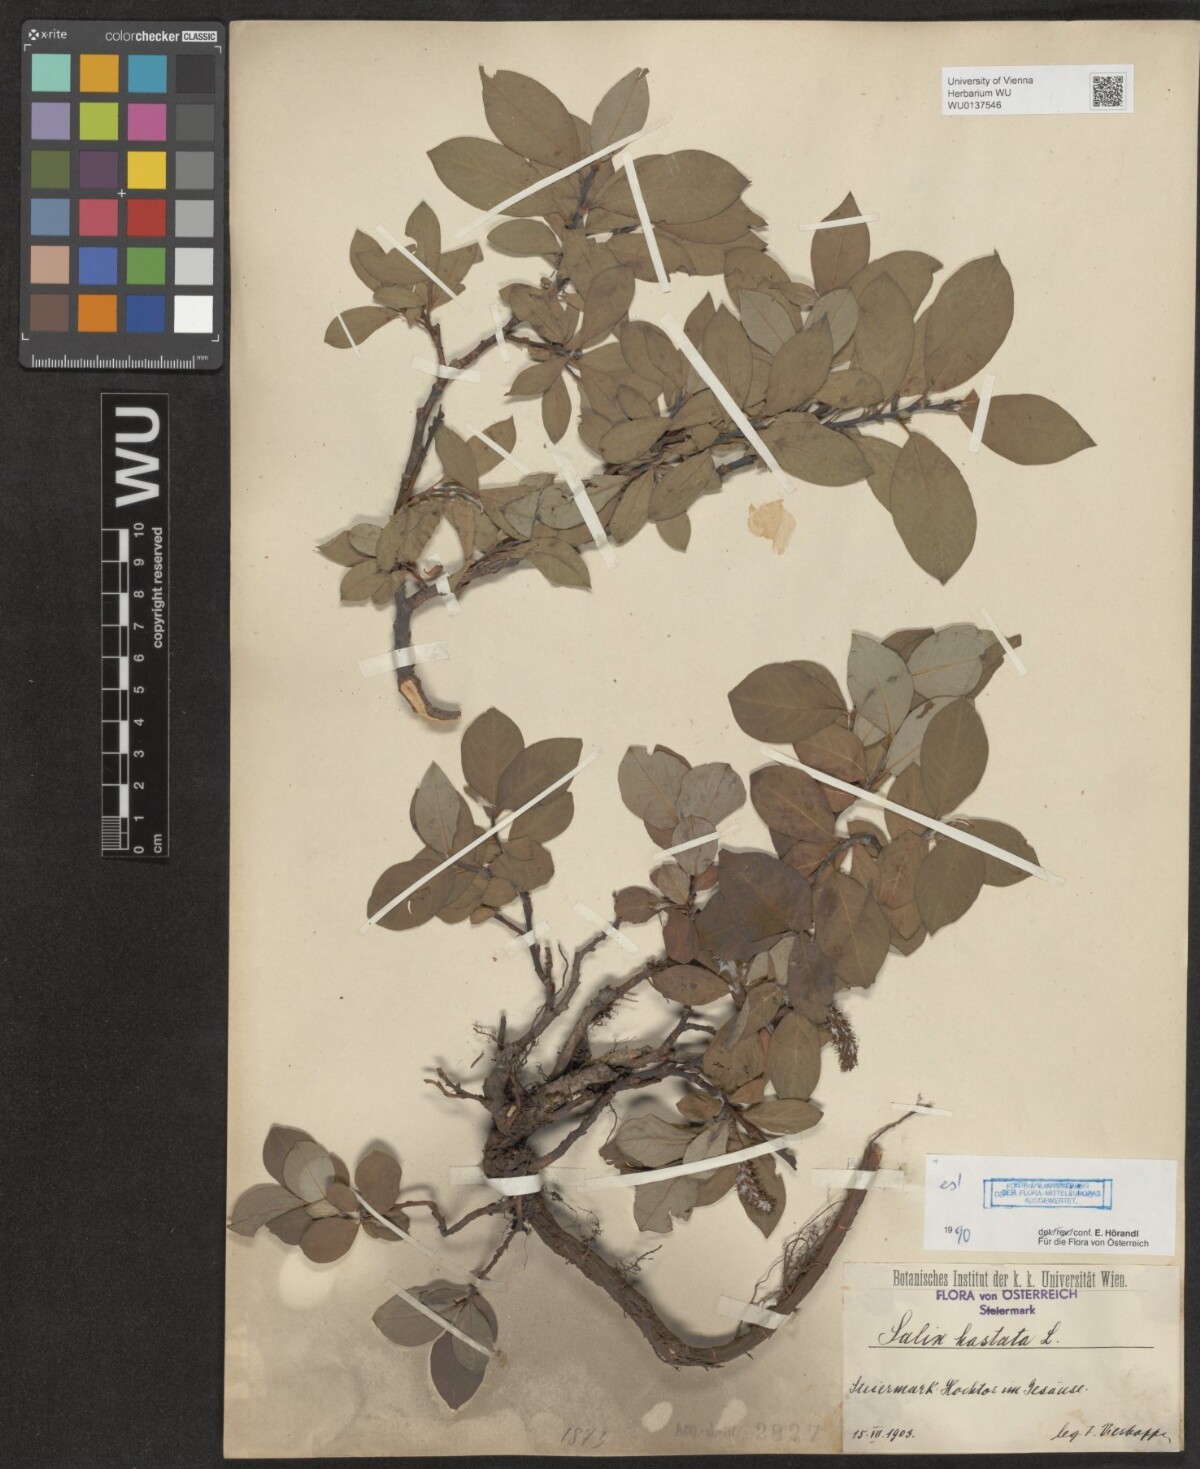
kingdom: Plantae
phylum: Tracheophyta
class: Magnoliopsida
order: Malpighiales
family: Salicaceae
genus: Salix
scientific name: Salix hastata
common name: Halberd willow
